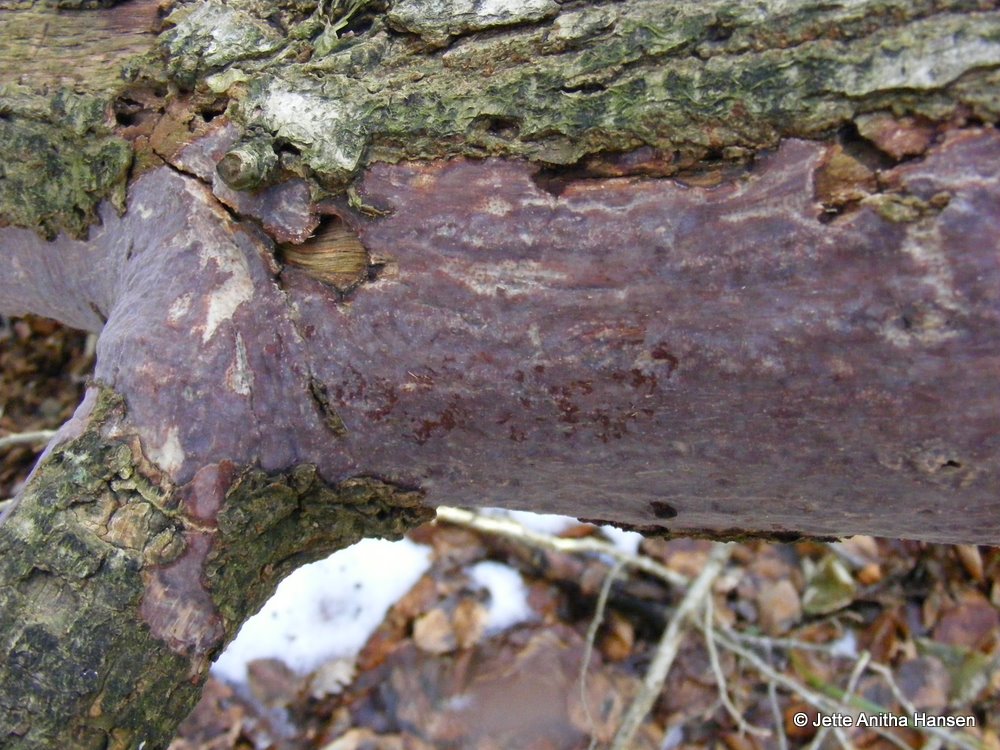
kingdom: Fungi
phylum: Basidiomycota
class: Agaricomycetes
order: Corticiales
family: Vuilleminiaceae
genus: Vuilleminia
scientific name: Vuilleminia comedens
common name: almindelig barksprænger
